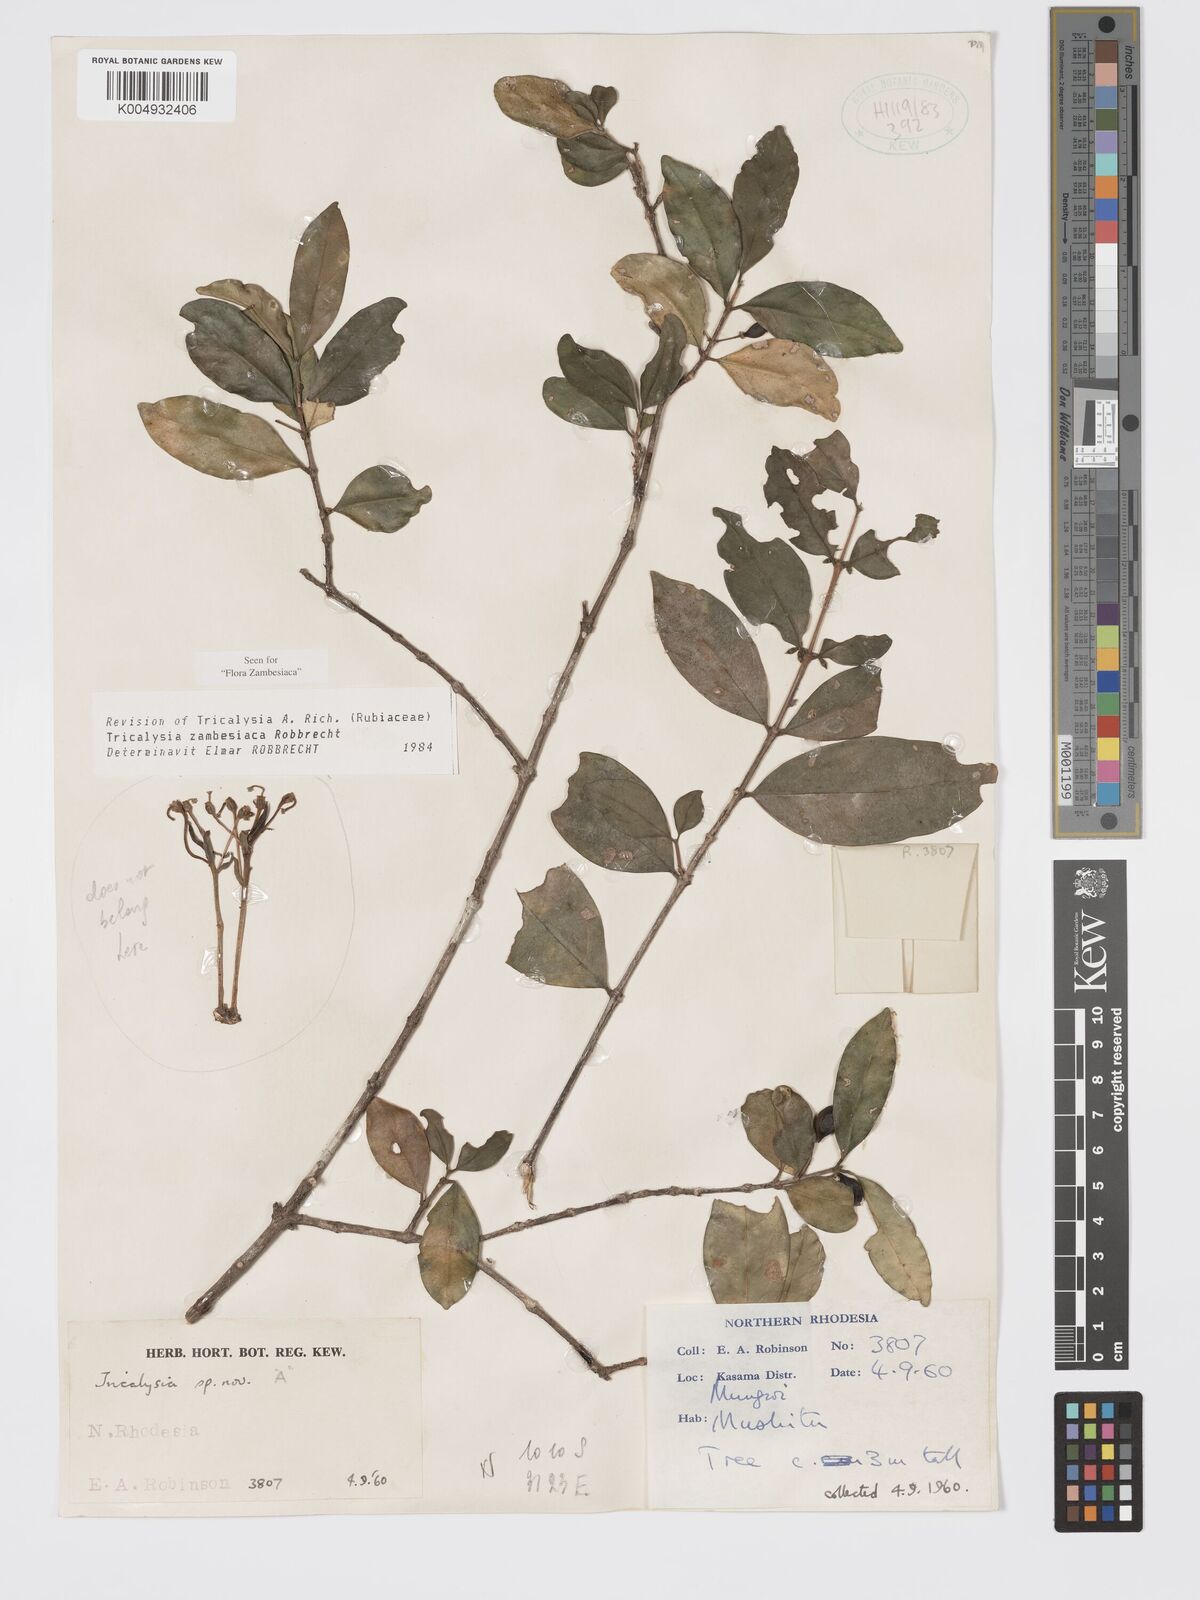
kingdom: Plantae
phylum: Tracheophyta
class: Magnoliopsida
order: Gentianales
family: Rubiaceae
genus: Tricalysia
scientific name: Tricalysia
